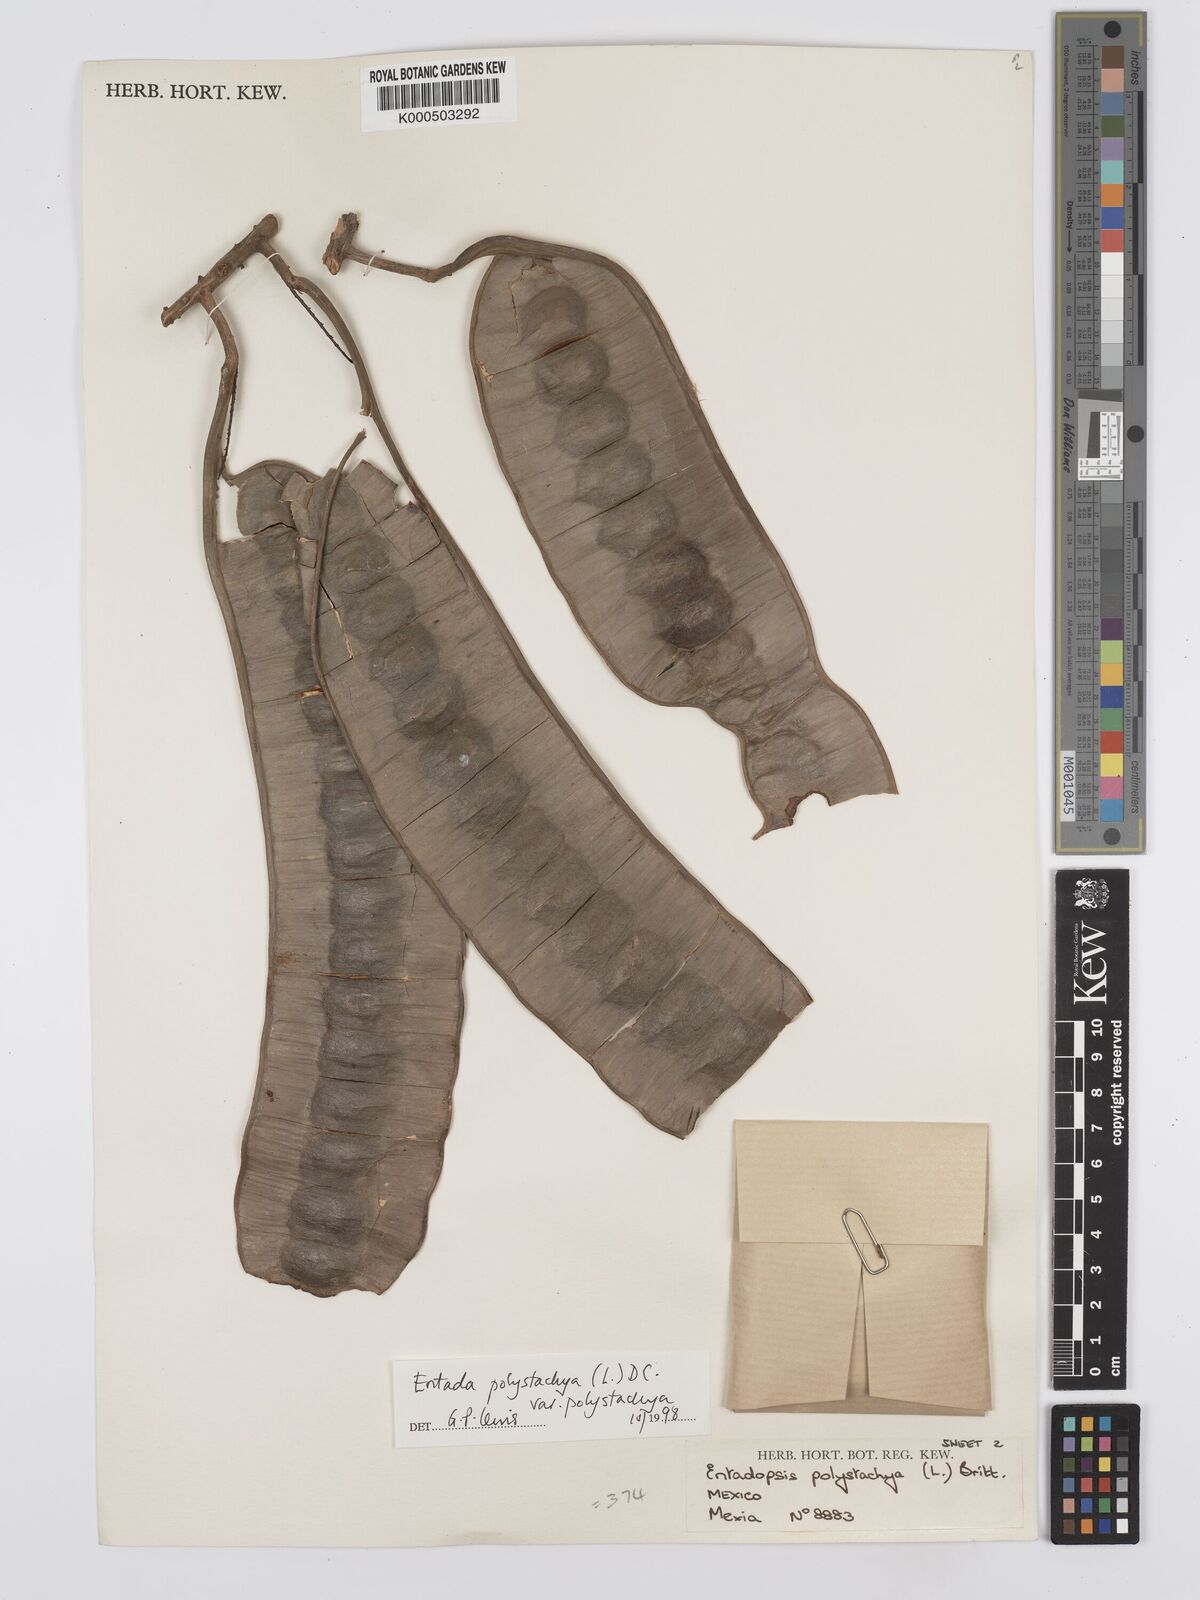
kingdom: Plantae
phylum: Tracheophyta
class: Magnoliopsida
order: Fabales
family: Fabaceae
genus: Entada
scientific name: Entada polystachya
